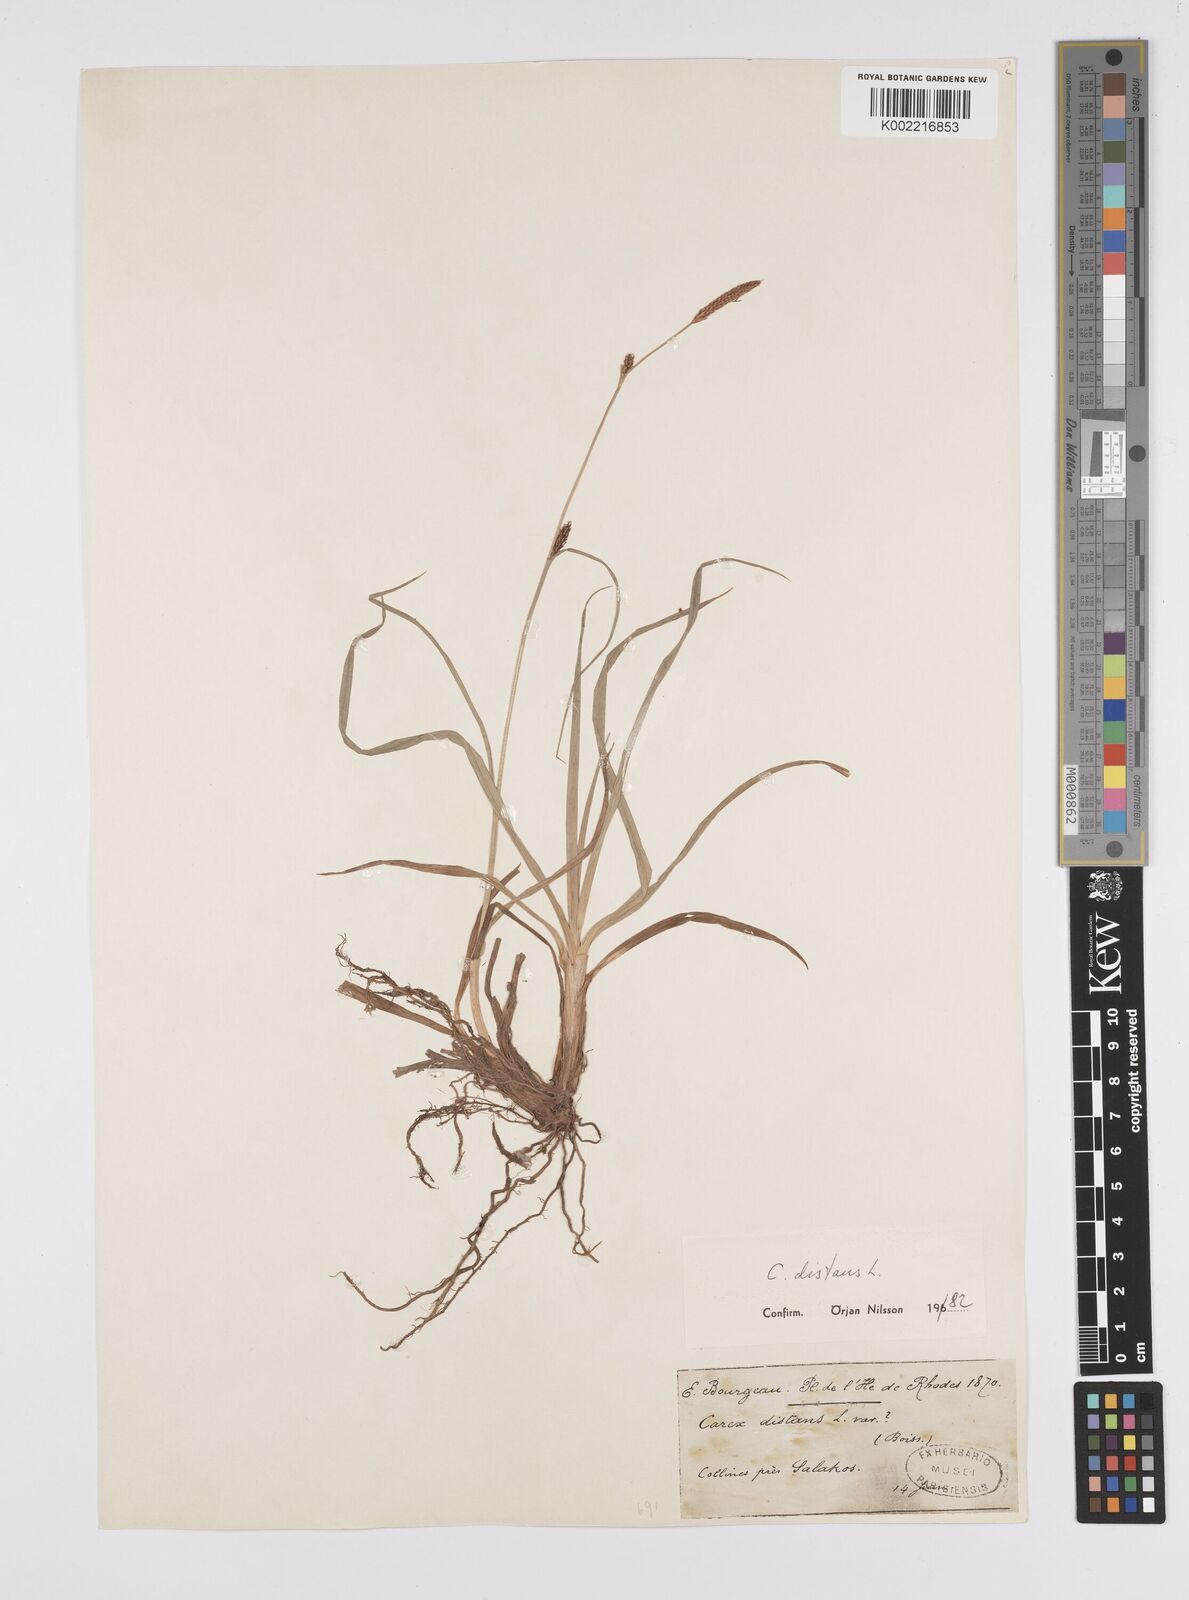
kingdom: Plantae
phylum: Tracheophyta
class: Liliopsida
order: Poales
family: Cyperaceae
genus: Carex
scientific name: Carex
